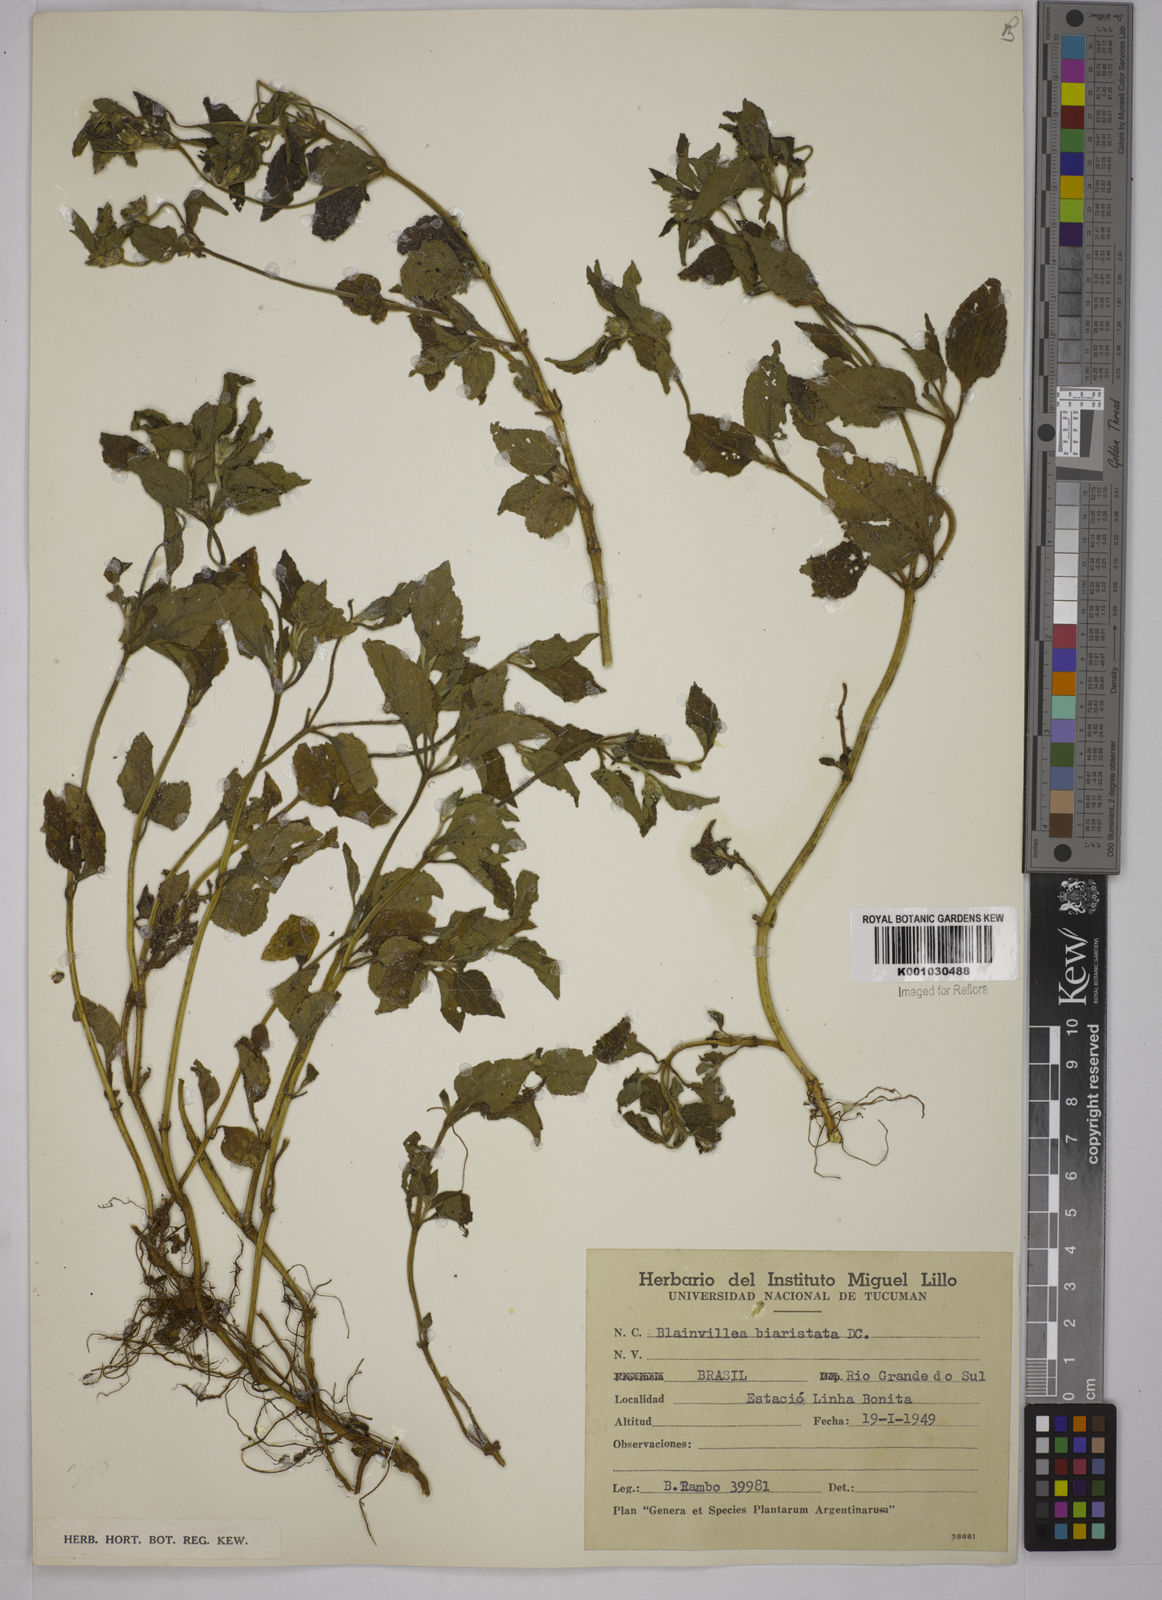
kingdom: Plantae
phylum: Tracheophyta
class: Magnoliopsida
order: Asterales
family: Asteraceae
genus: Blainvillea
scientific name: Blainvillea
